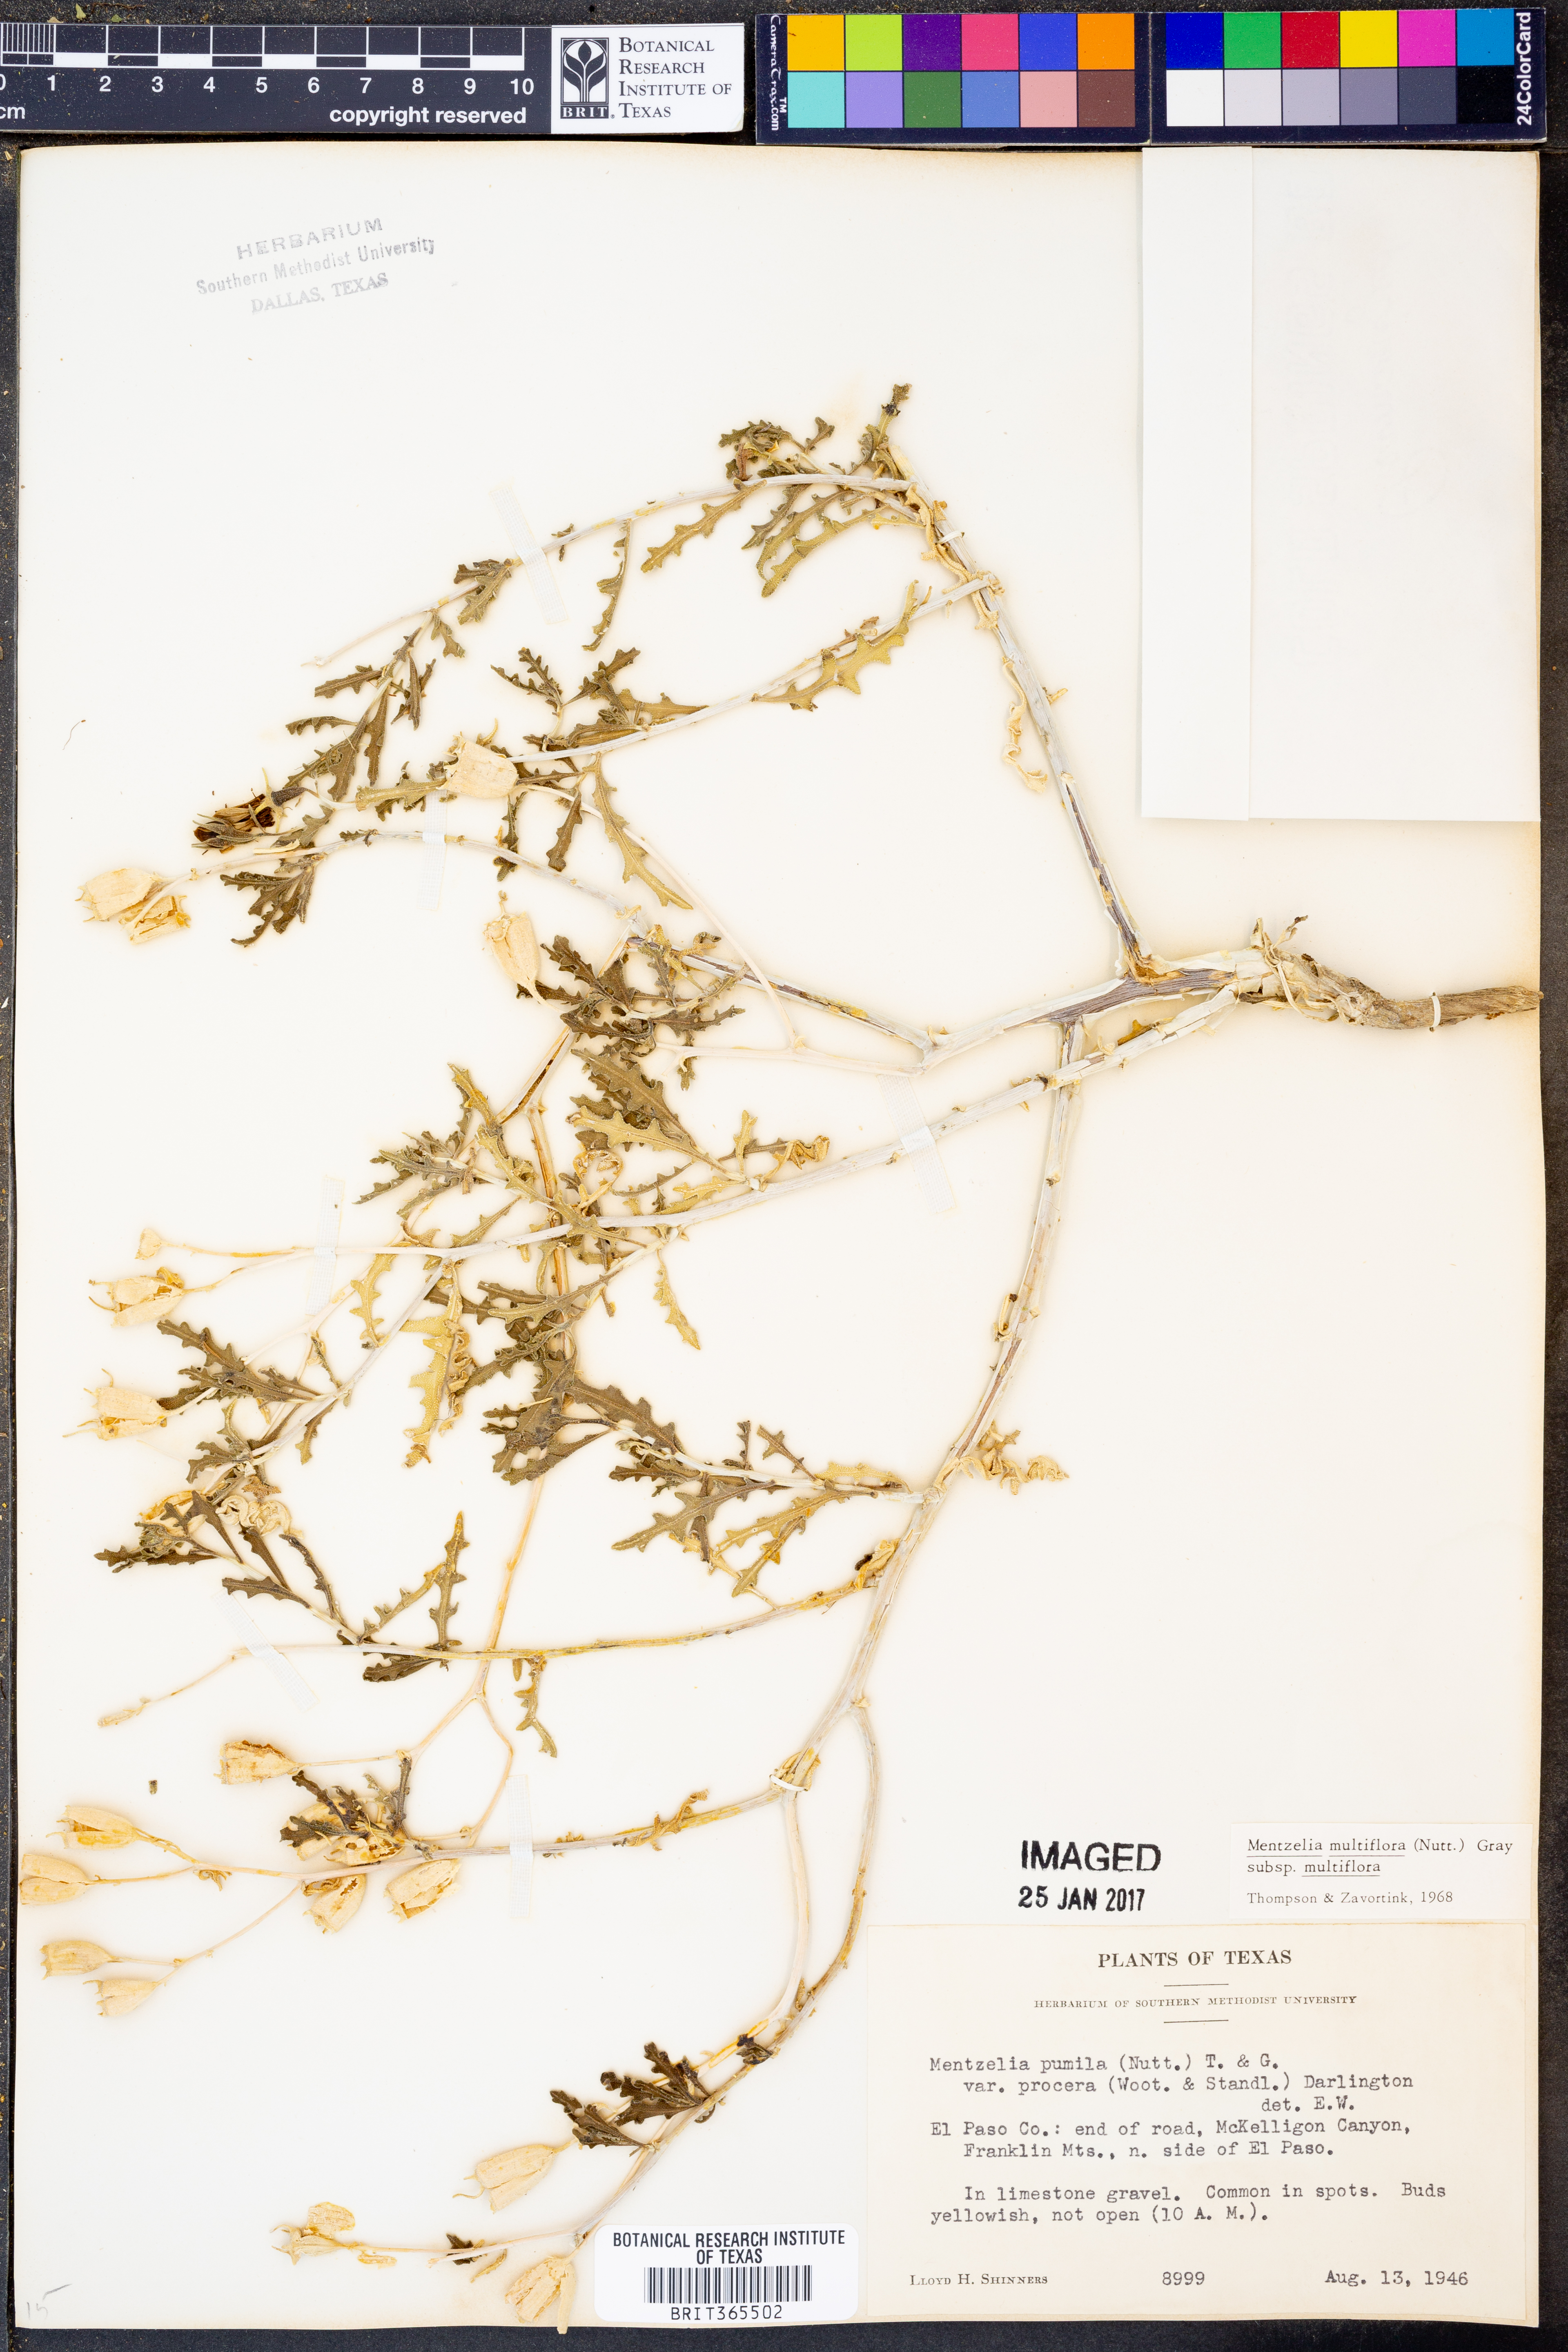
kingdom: Plantae
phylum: Tracheophyta
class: Magnoliopsida
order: Cornales
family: Loasaceae
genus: Mentzelia
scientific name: Mentzelia multiflora
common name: Adonis blazingstar
